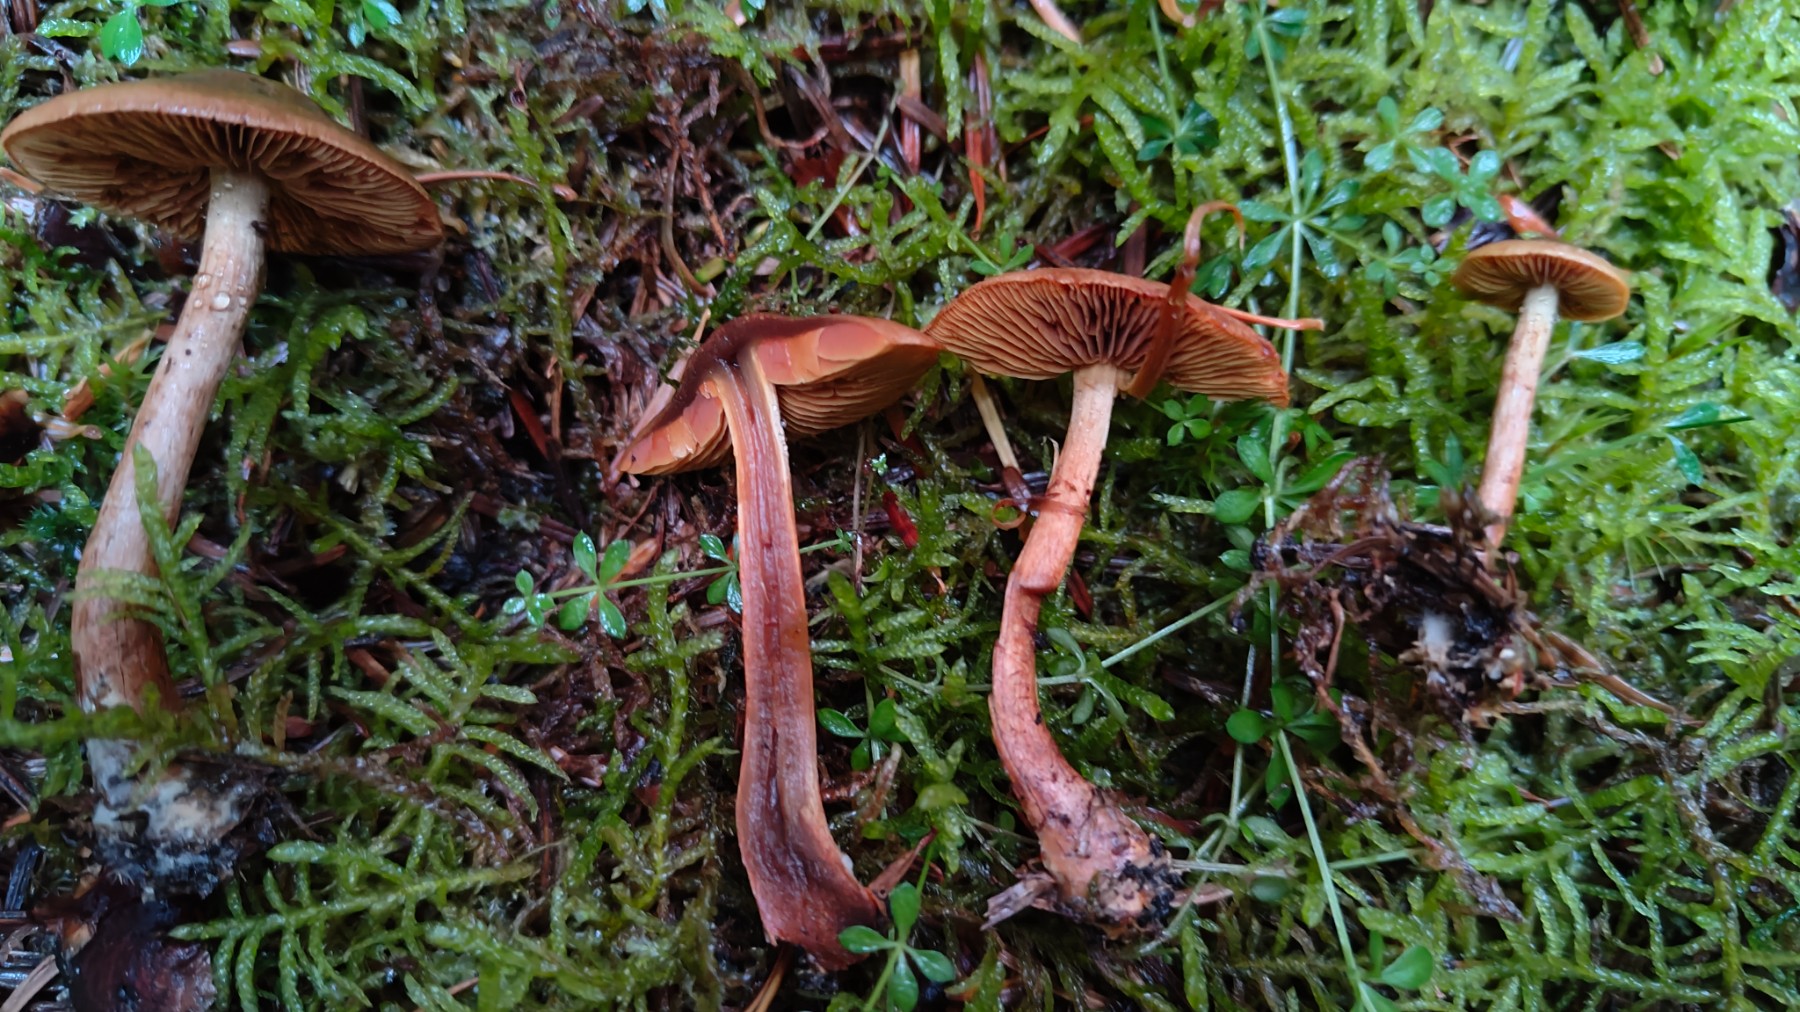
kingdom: Fungi
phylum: Basidiomycota
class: Agaricomycetes
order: Agaricales
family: Cortinariaceae
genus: Cortinarius
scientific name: Cortinarius
